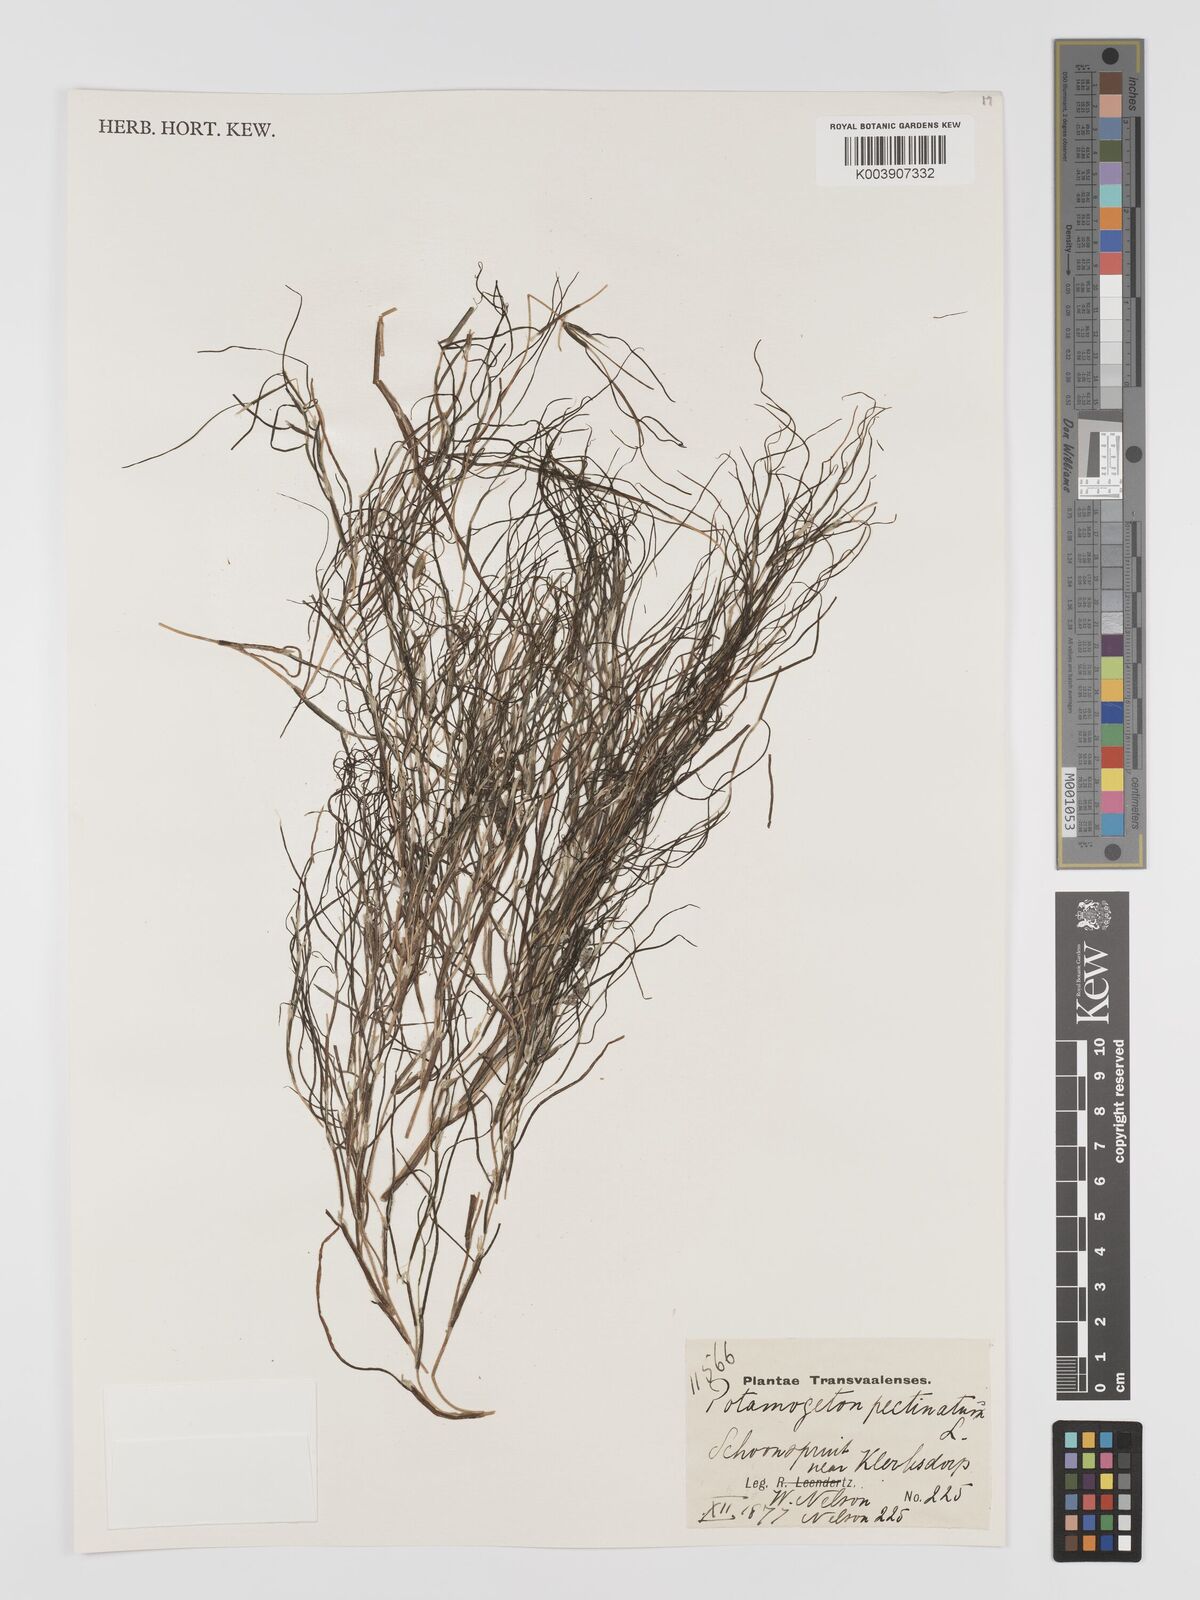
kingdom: Plantae
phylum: Tracheophyta
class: Liliopsida
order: Alismatales
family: Potamogetonaceae
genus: Stuckenia
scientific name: Stuckenia pectinata
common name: Sago pondweed
